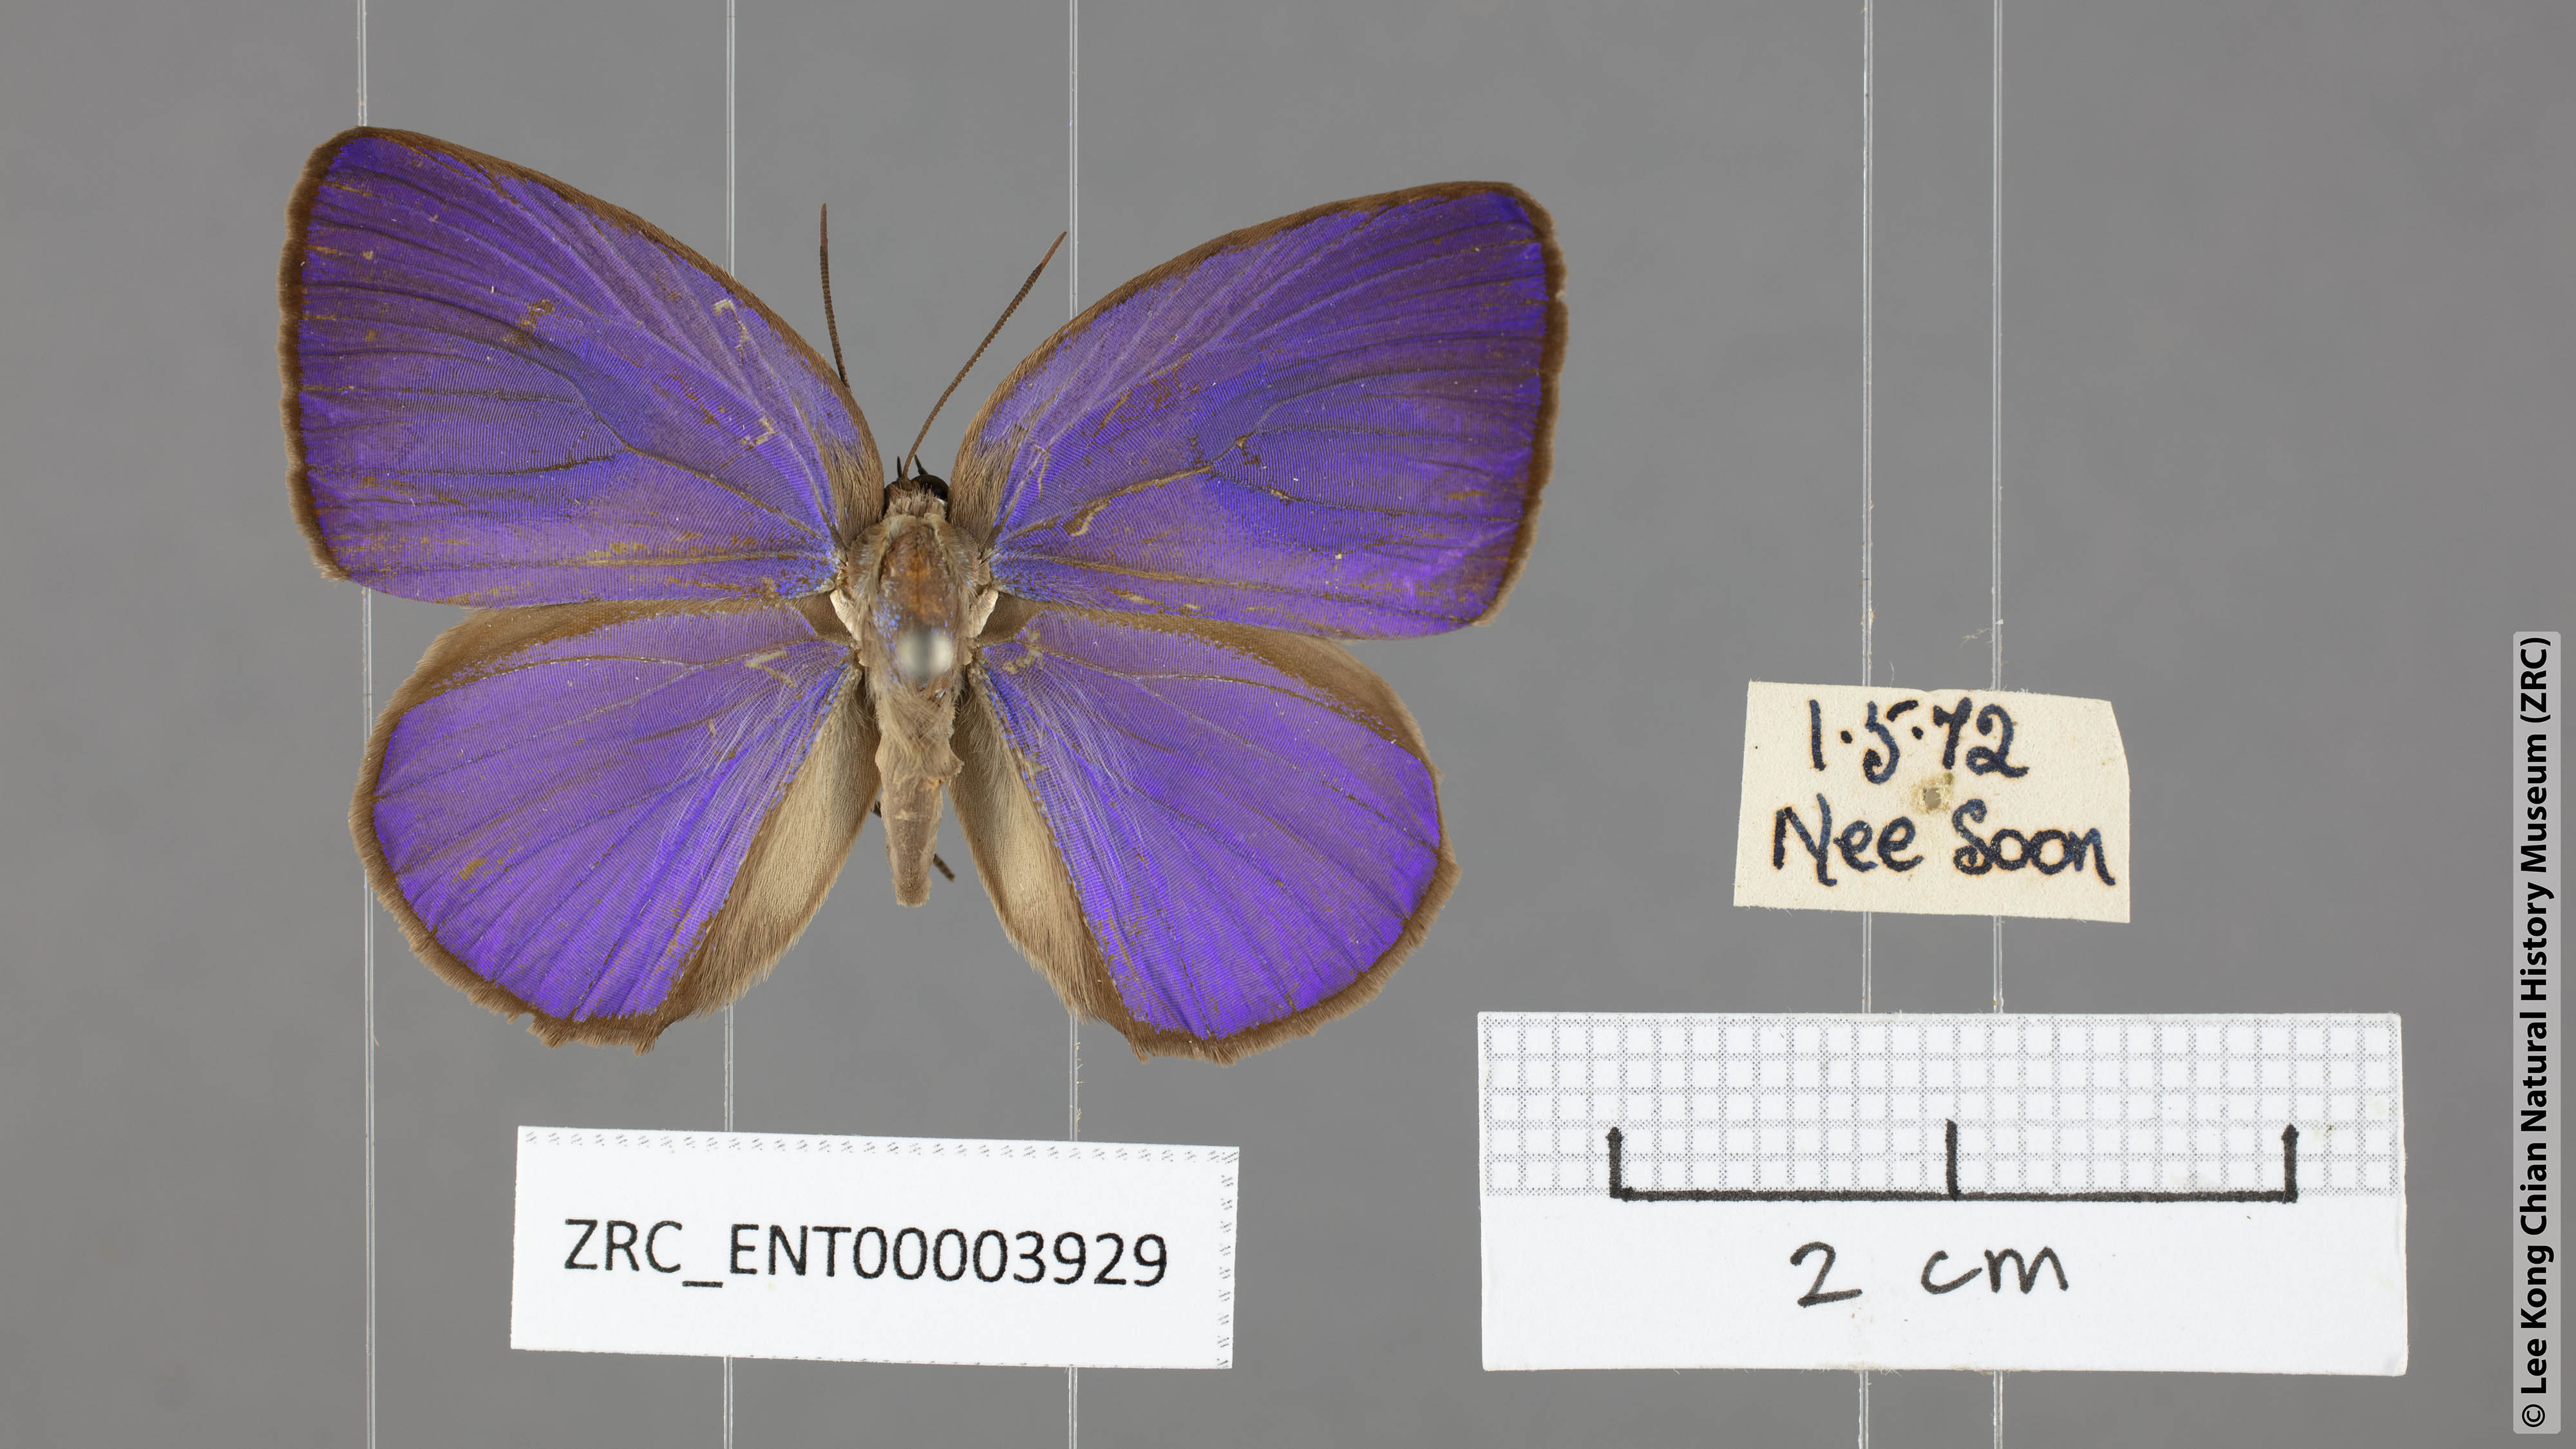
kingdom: Animalia
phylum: Arthropoda
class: Insecta
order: Lepidoptera
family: Lycaenidae
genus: Arhopala
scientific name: Arhopala epimuta
